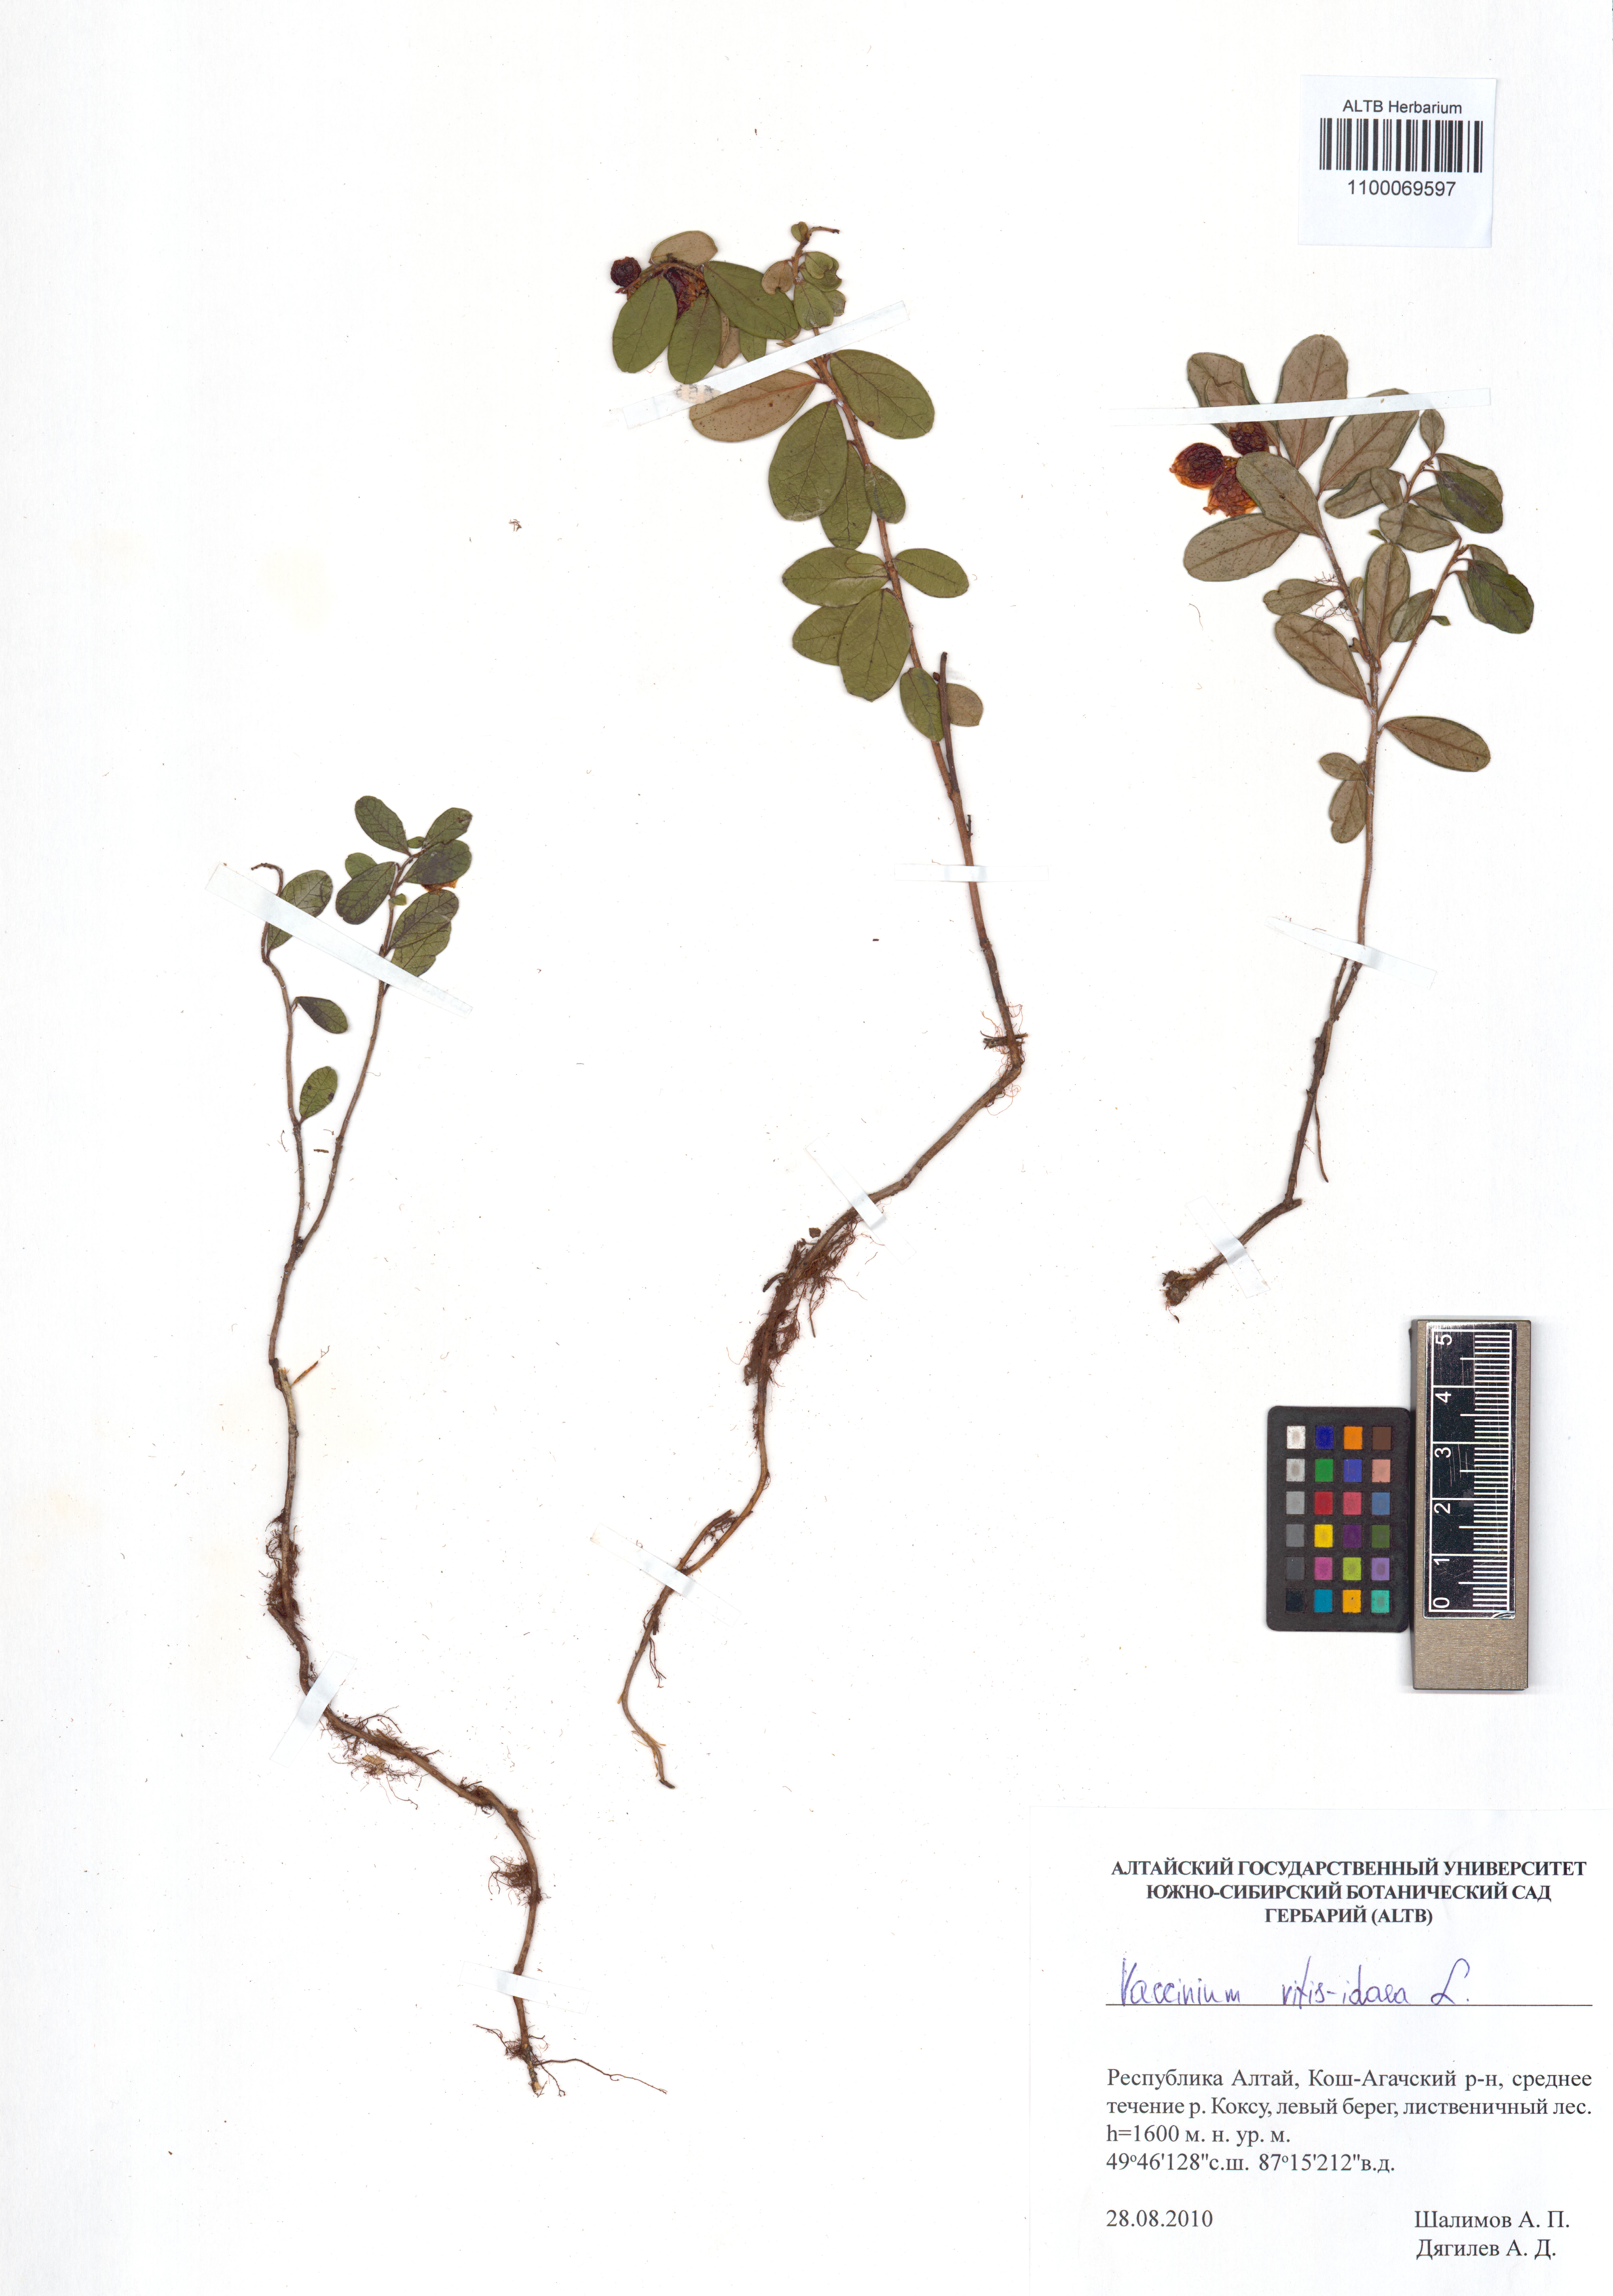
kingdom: Plantae
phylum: Tracheophyta
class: Magnoliopsida
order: Ericales
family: Ericaceae
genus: Vaccinium
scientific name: Vaccinium vitis-idaea
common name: Cowberry
